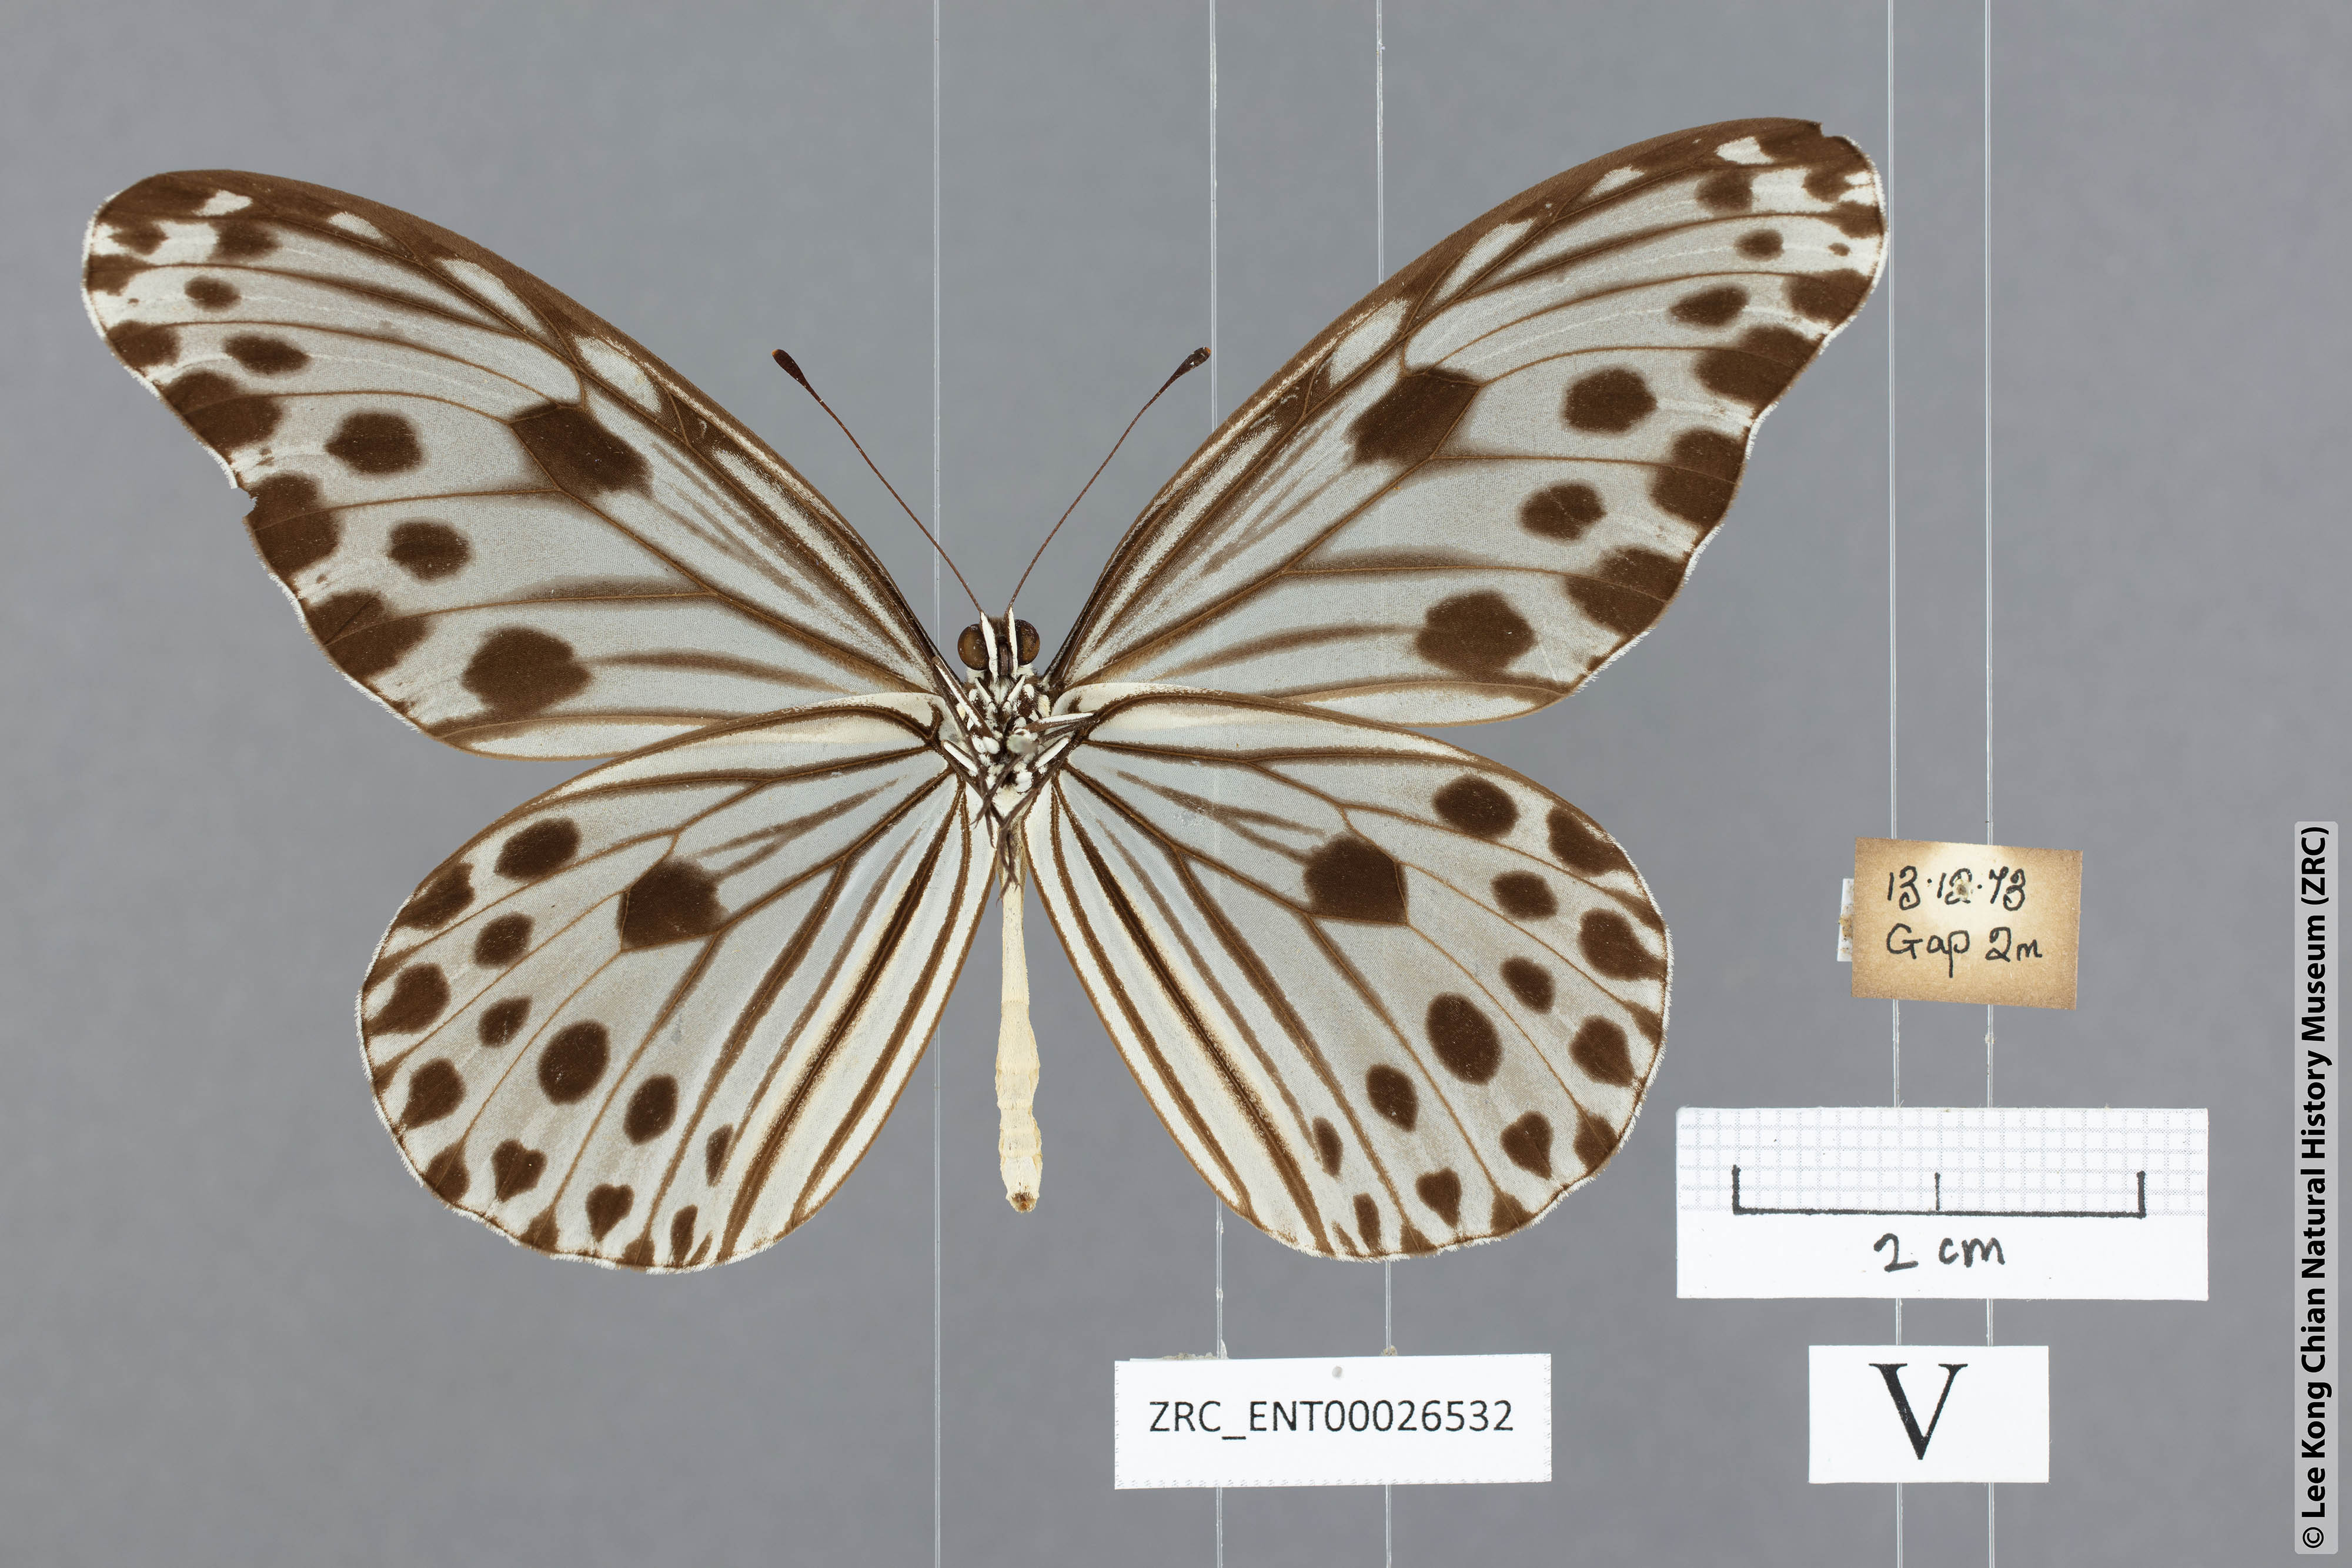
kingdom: Animalia
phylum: Arthropoda
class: Insecta
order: Lepidoptera
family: Nymphalidae
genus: Ideopsis
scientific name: Ideopsis gaura
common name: Smaller wood nymph
